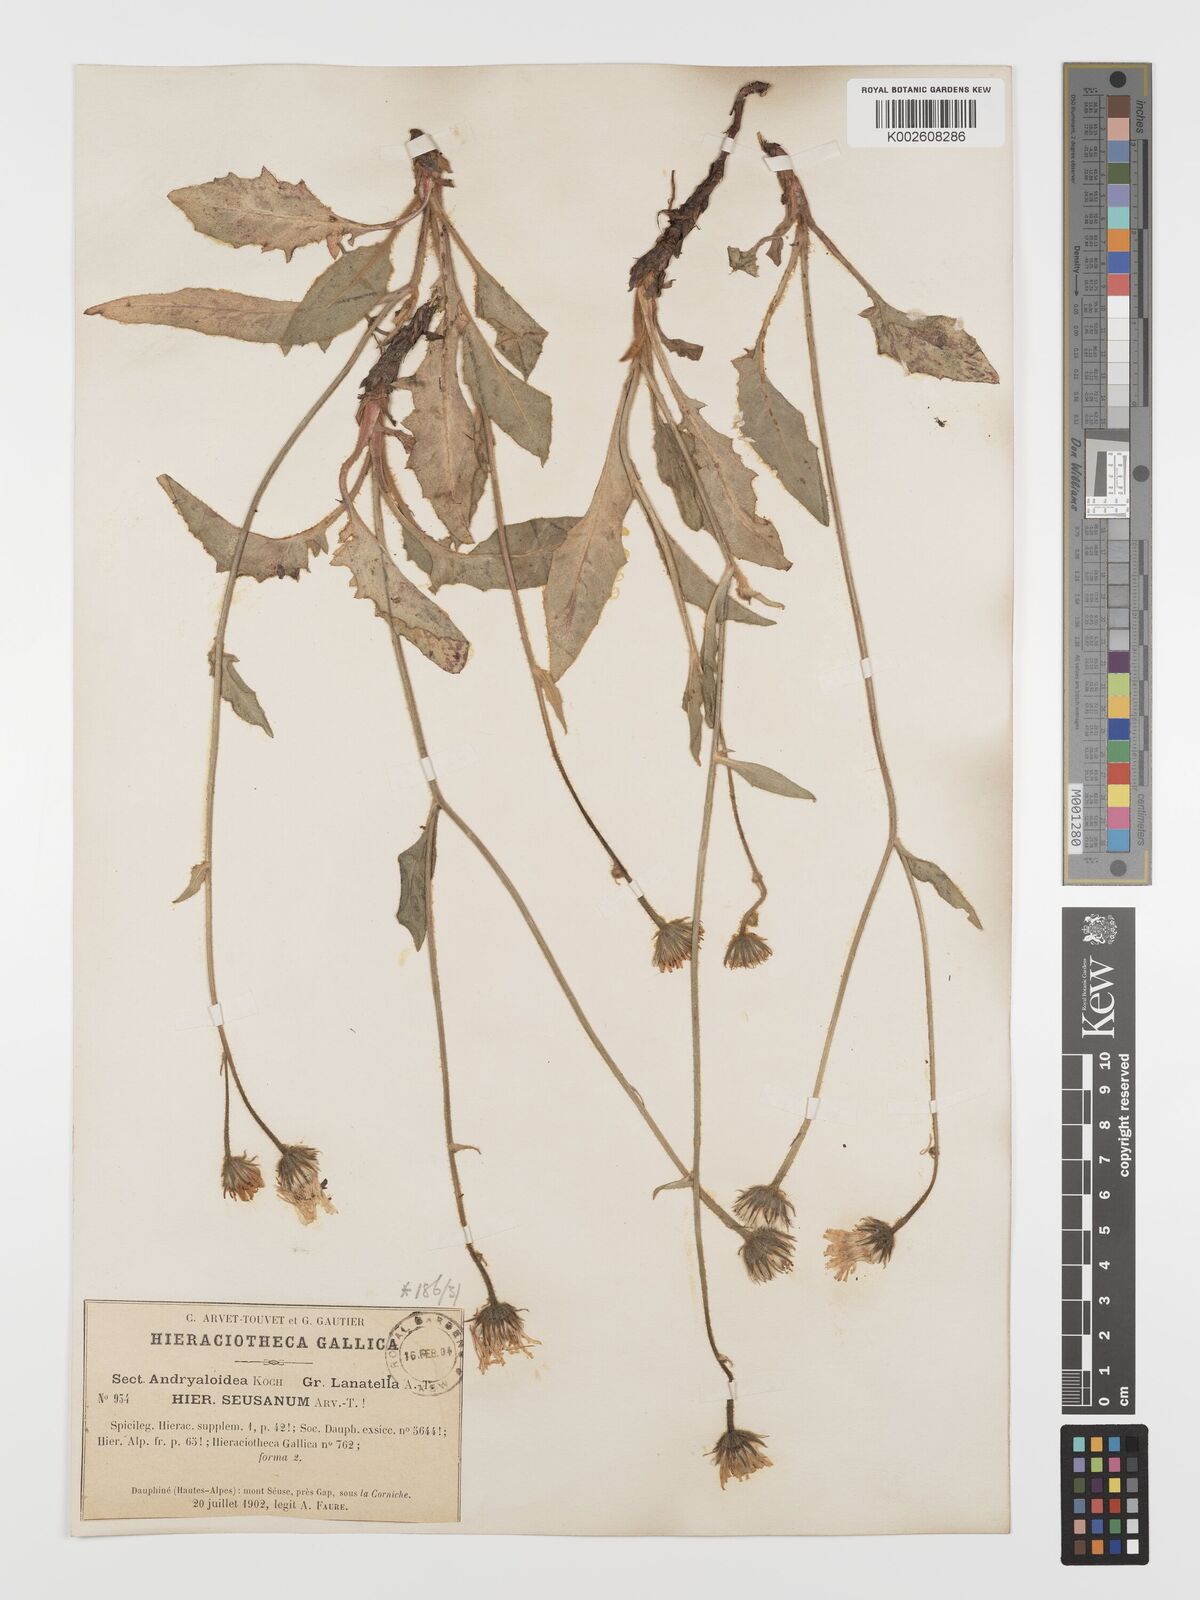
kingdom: Plantae
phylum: Tracheophyta
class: Magnoliopsida
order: Asterales
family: Asteraceae
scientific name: Asteraceae
